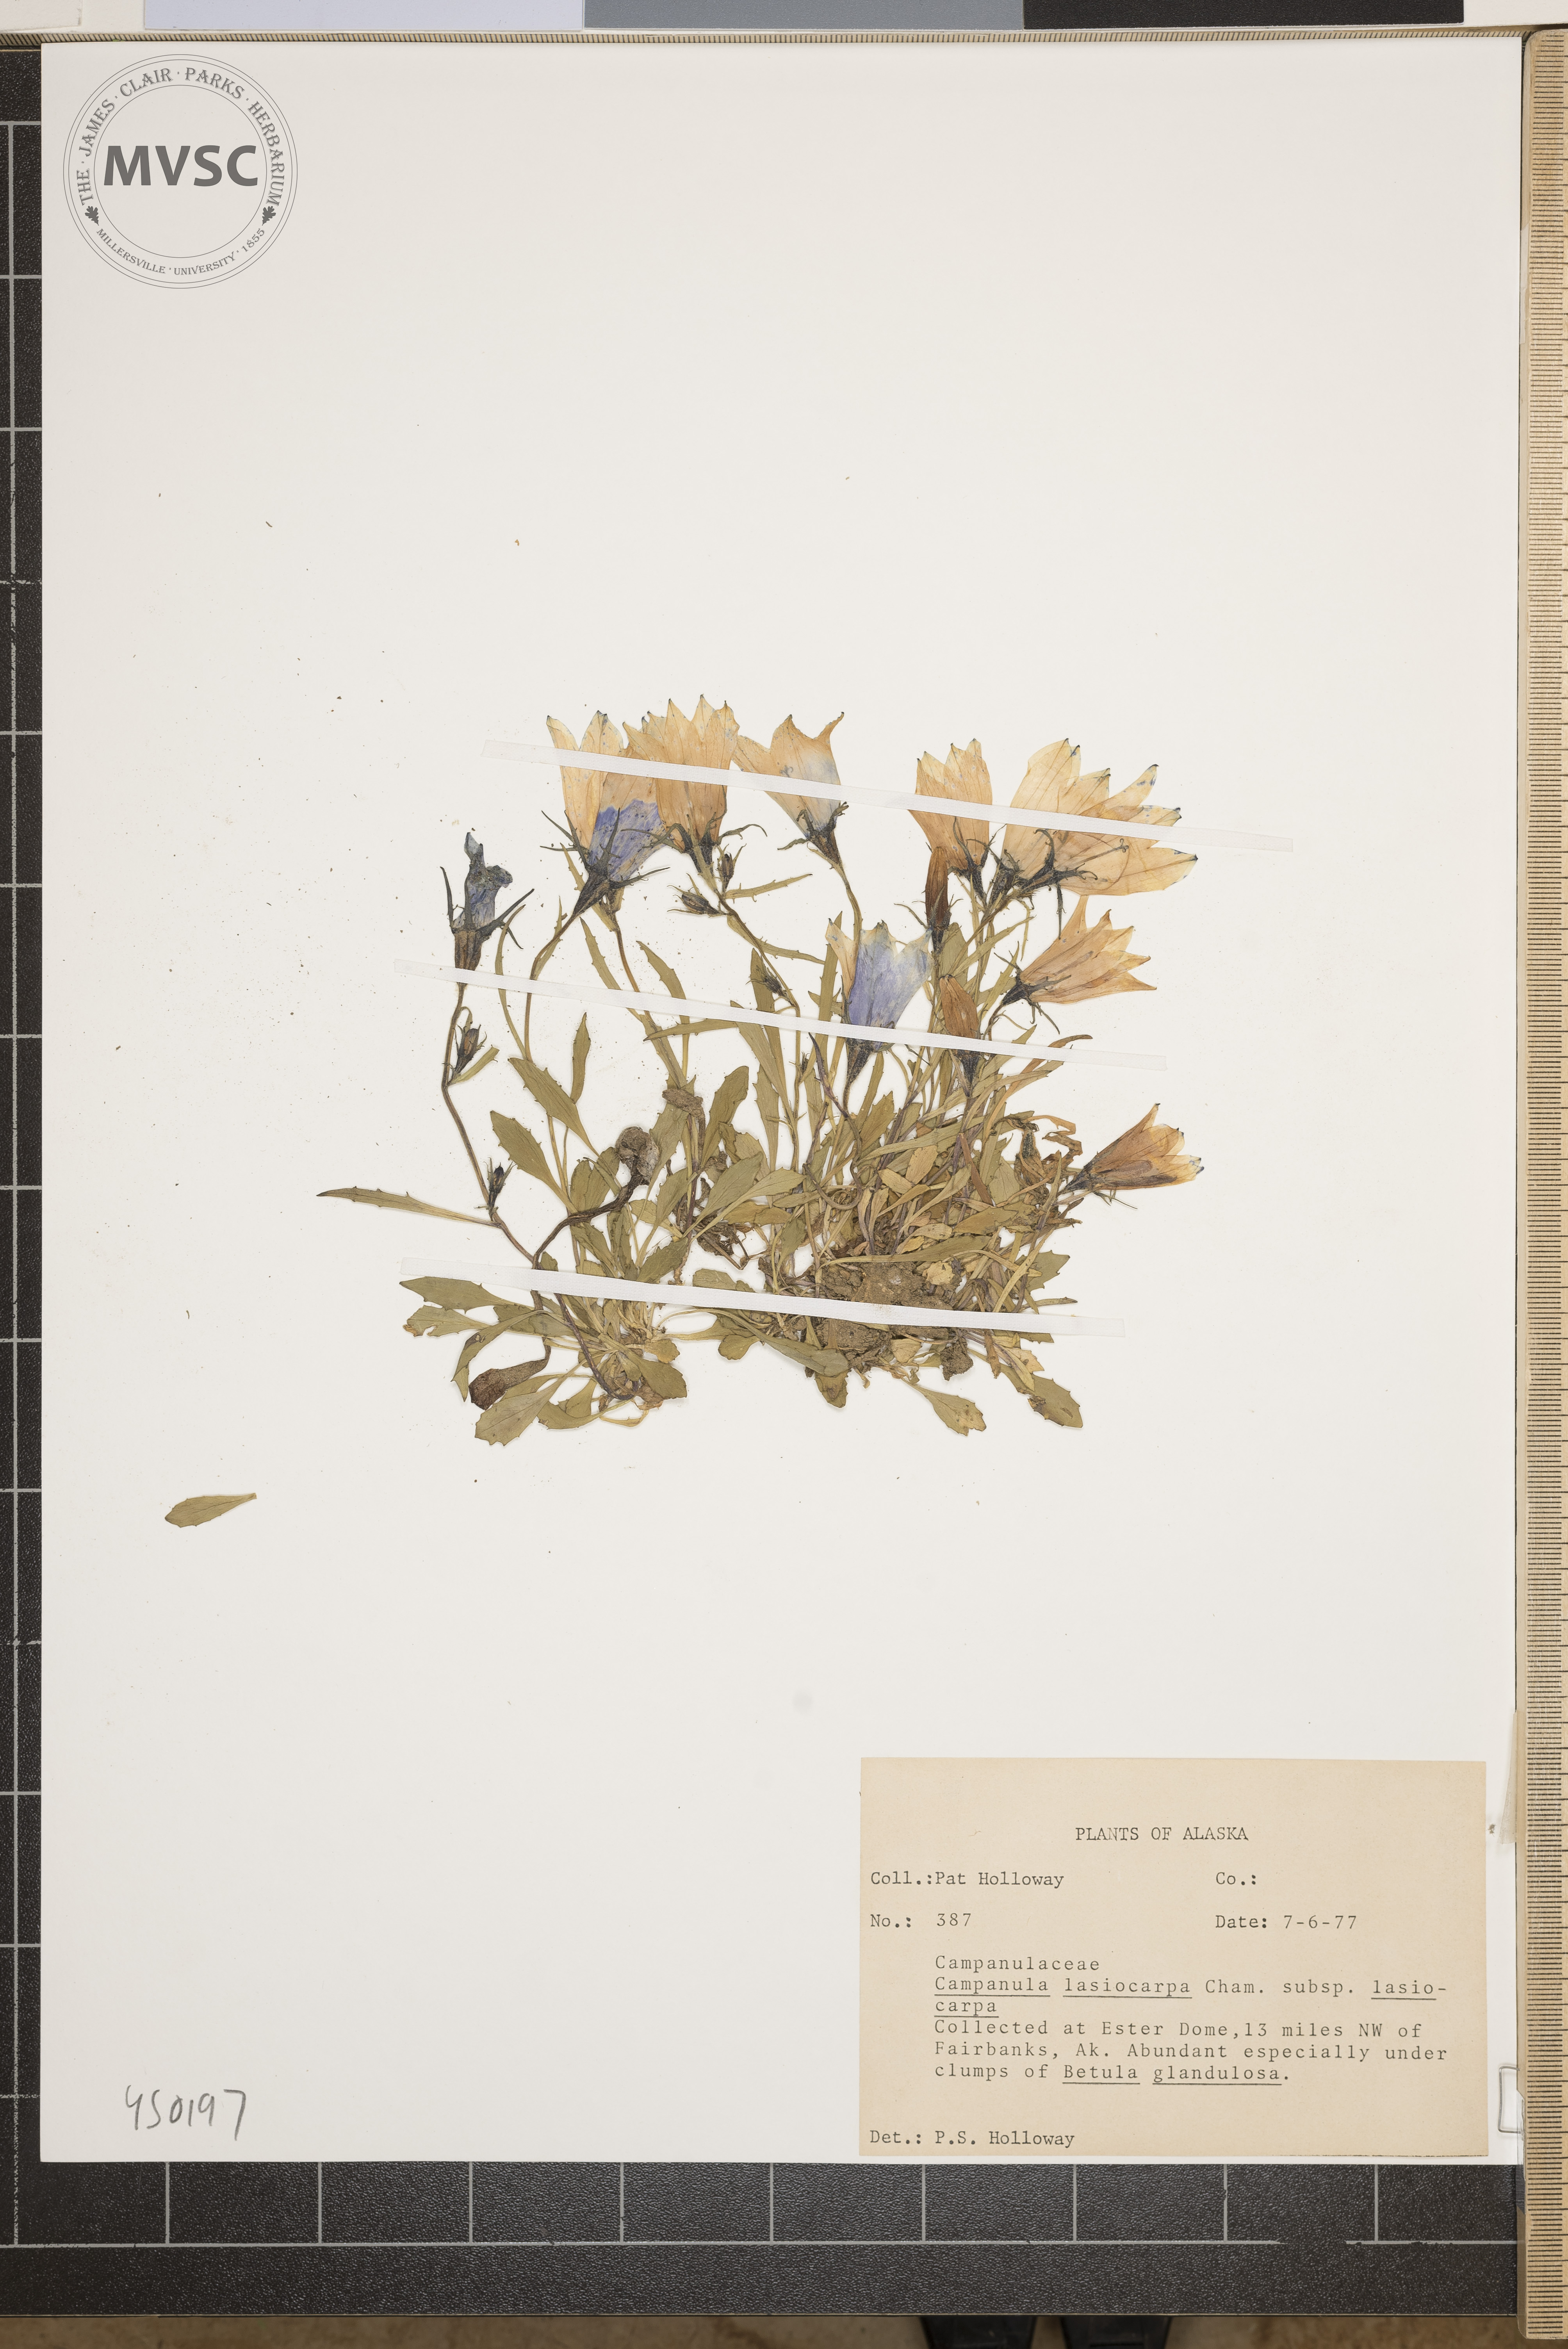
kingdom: Plantae
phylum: Tracheophyta
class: Magnoliopsida
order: Asterales
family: Campanulaceae
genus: Campanula
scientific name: Campanula lasiocarpa
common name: Mountain harebell
